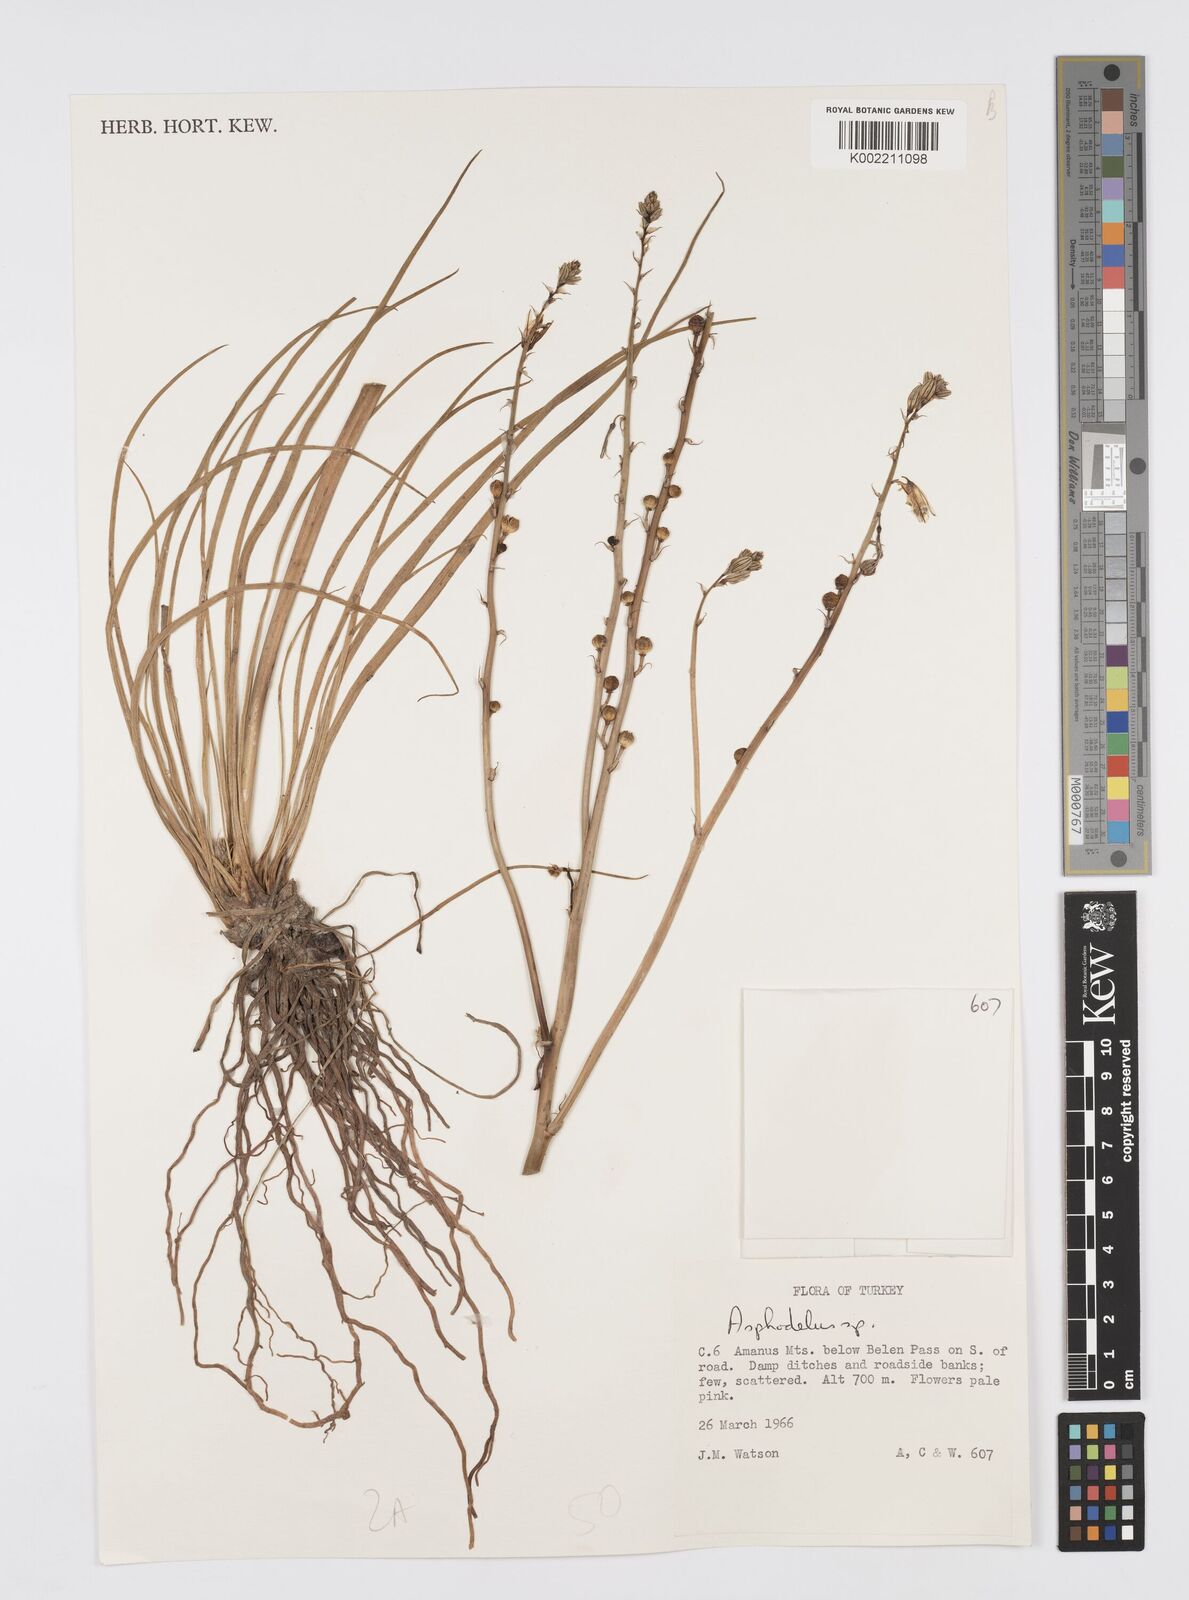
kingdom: Plantae
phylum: Tracheophyta
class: Liliopsida
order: Asparagales
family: Asphodelaceae
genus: Asphodelus
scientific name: Asphodelus fistulosus
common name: Onionweed
